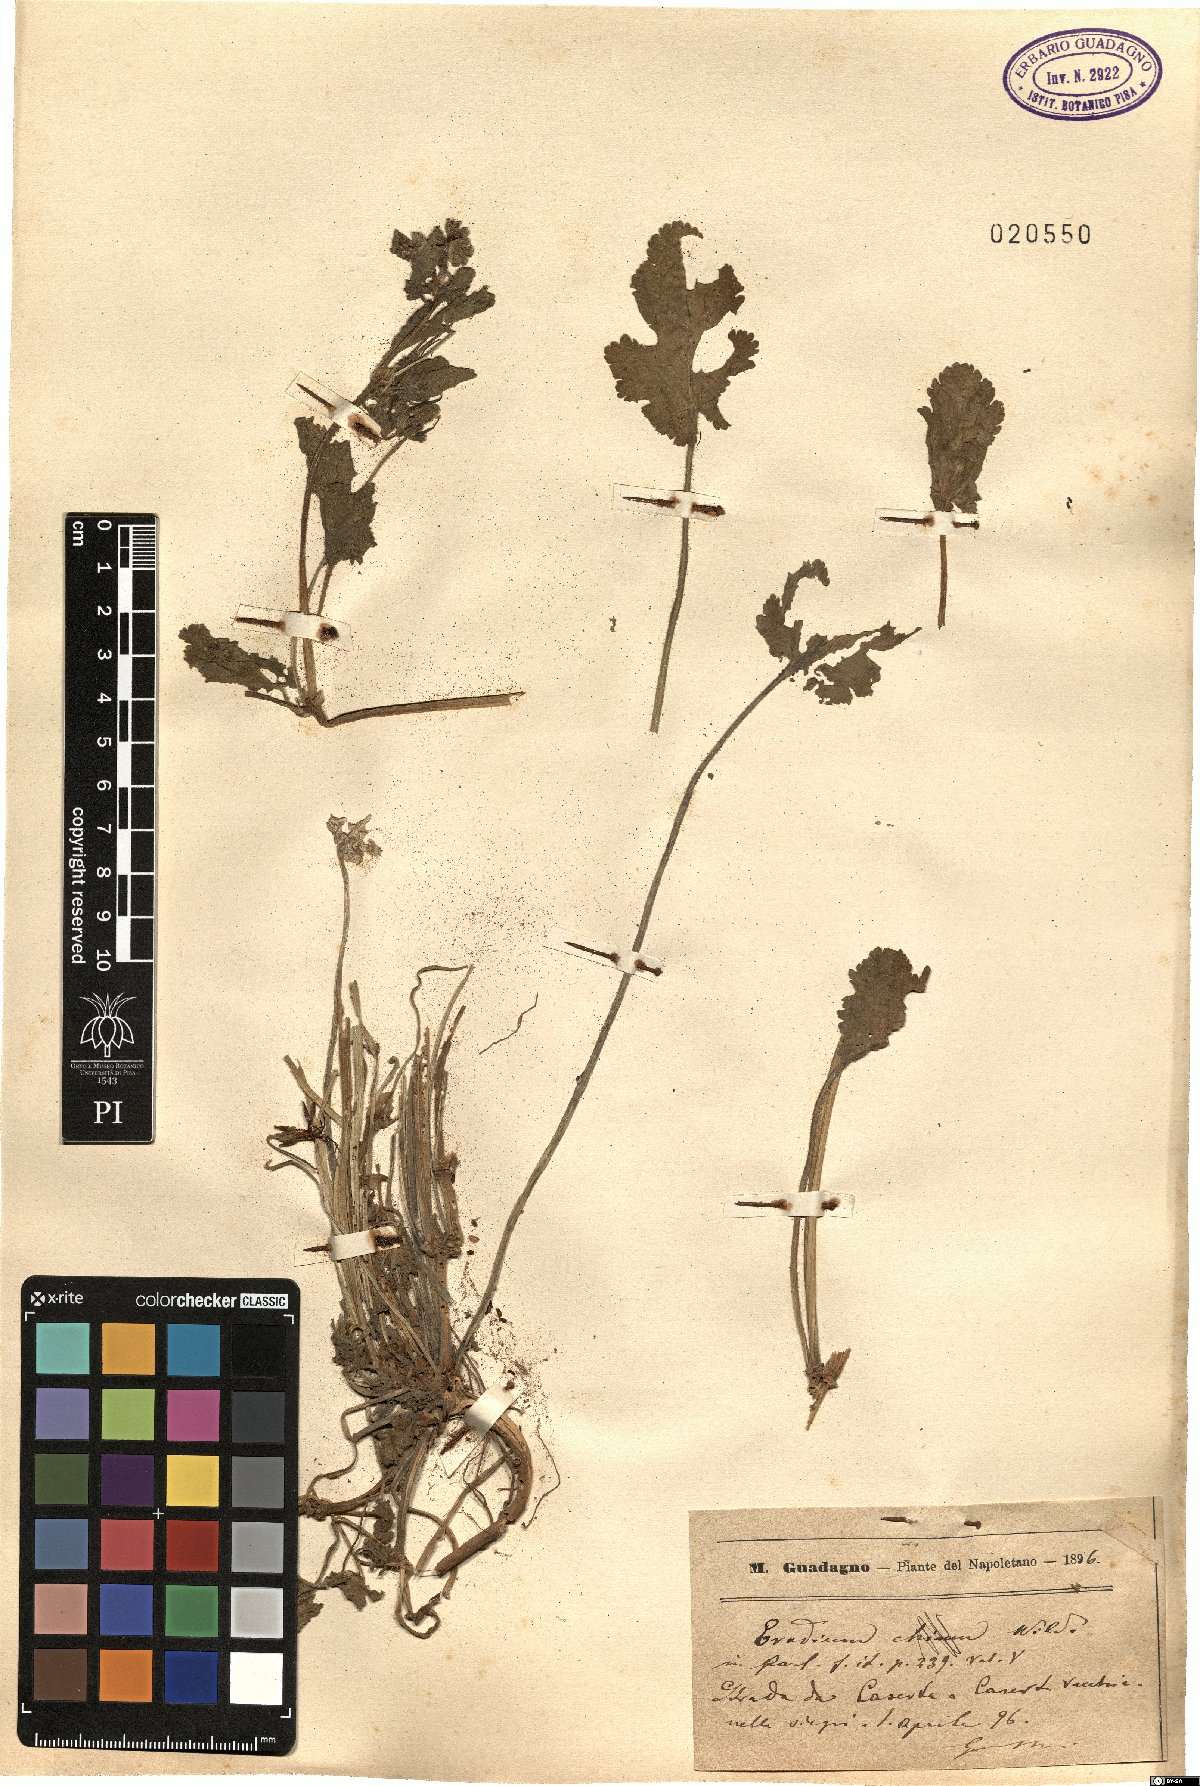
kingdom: Plantae
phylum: Tracheophyta
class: Magnoliopsida
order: Geraniales
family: Geraniaceae
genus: Erodium
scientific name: Erodium
